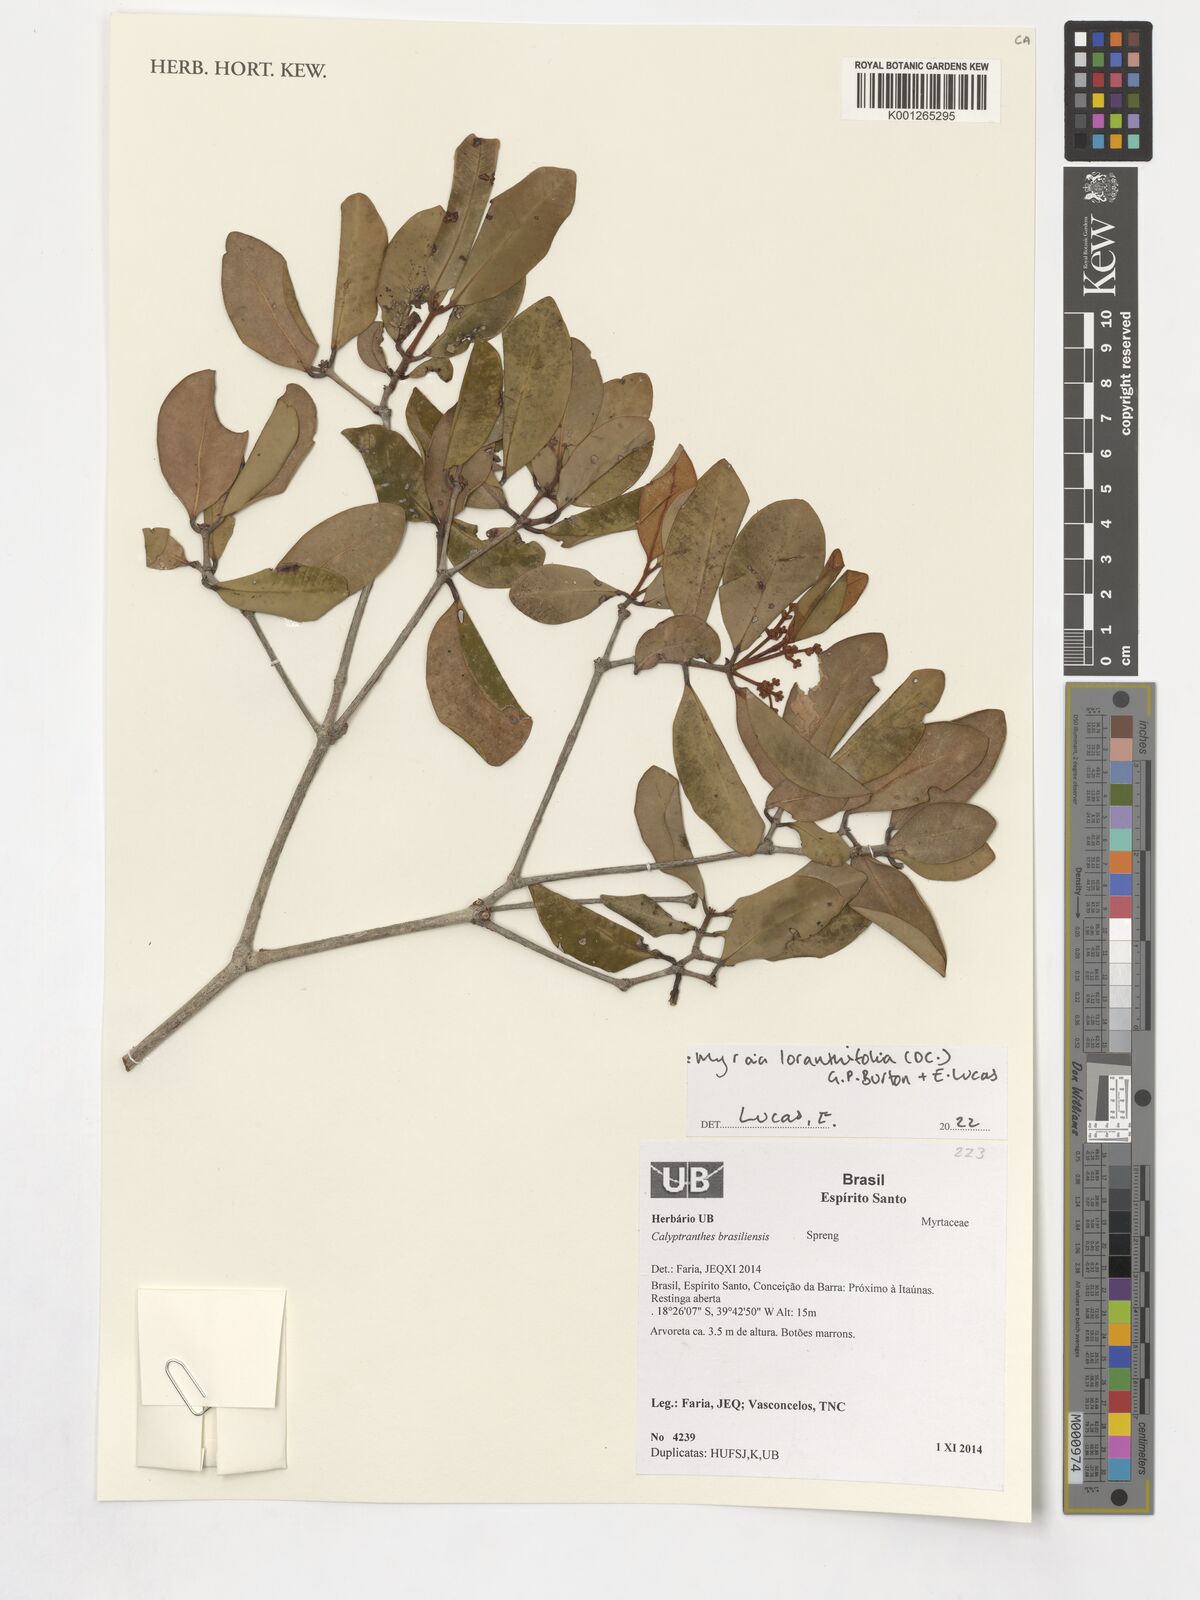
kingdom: Plantae
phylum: Tracheophyta
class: Magnoliopsida
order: Myrtales
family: Myrtaceae
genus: Myrcia
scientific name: Myrcia neobrasiliensis
